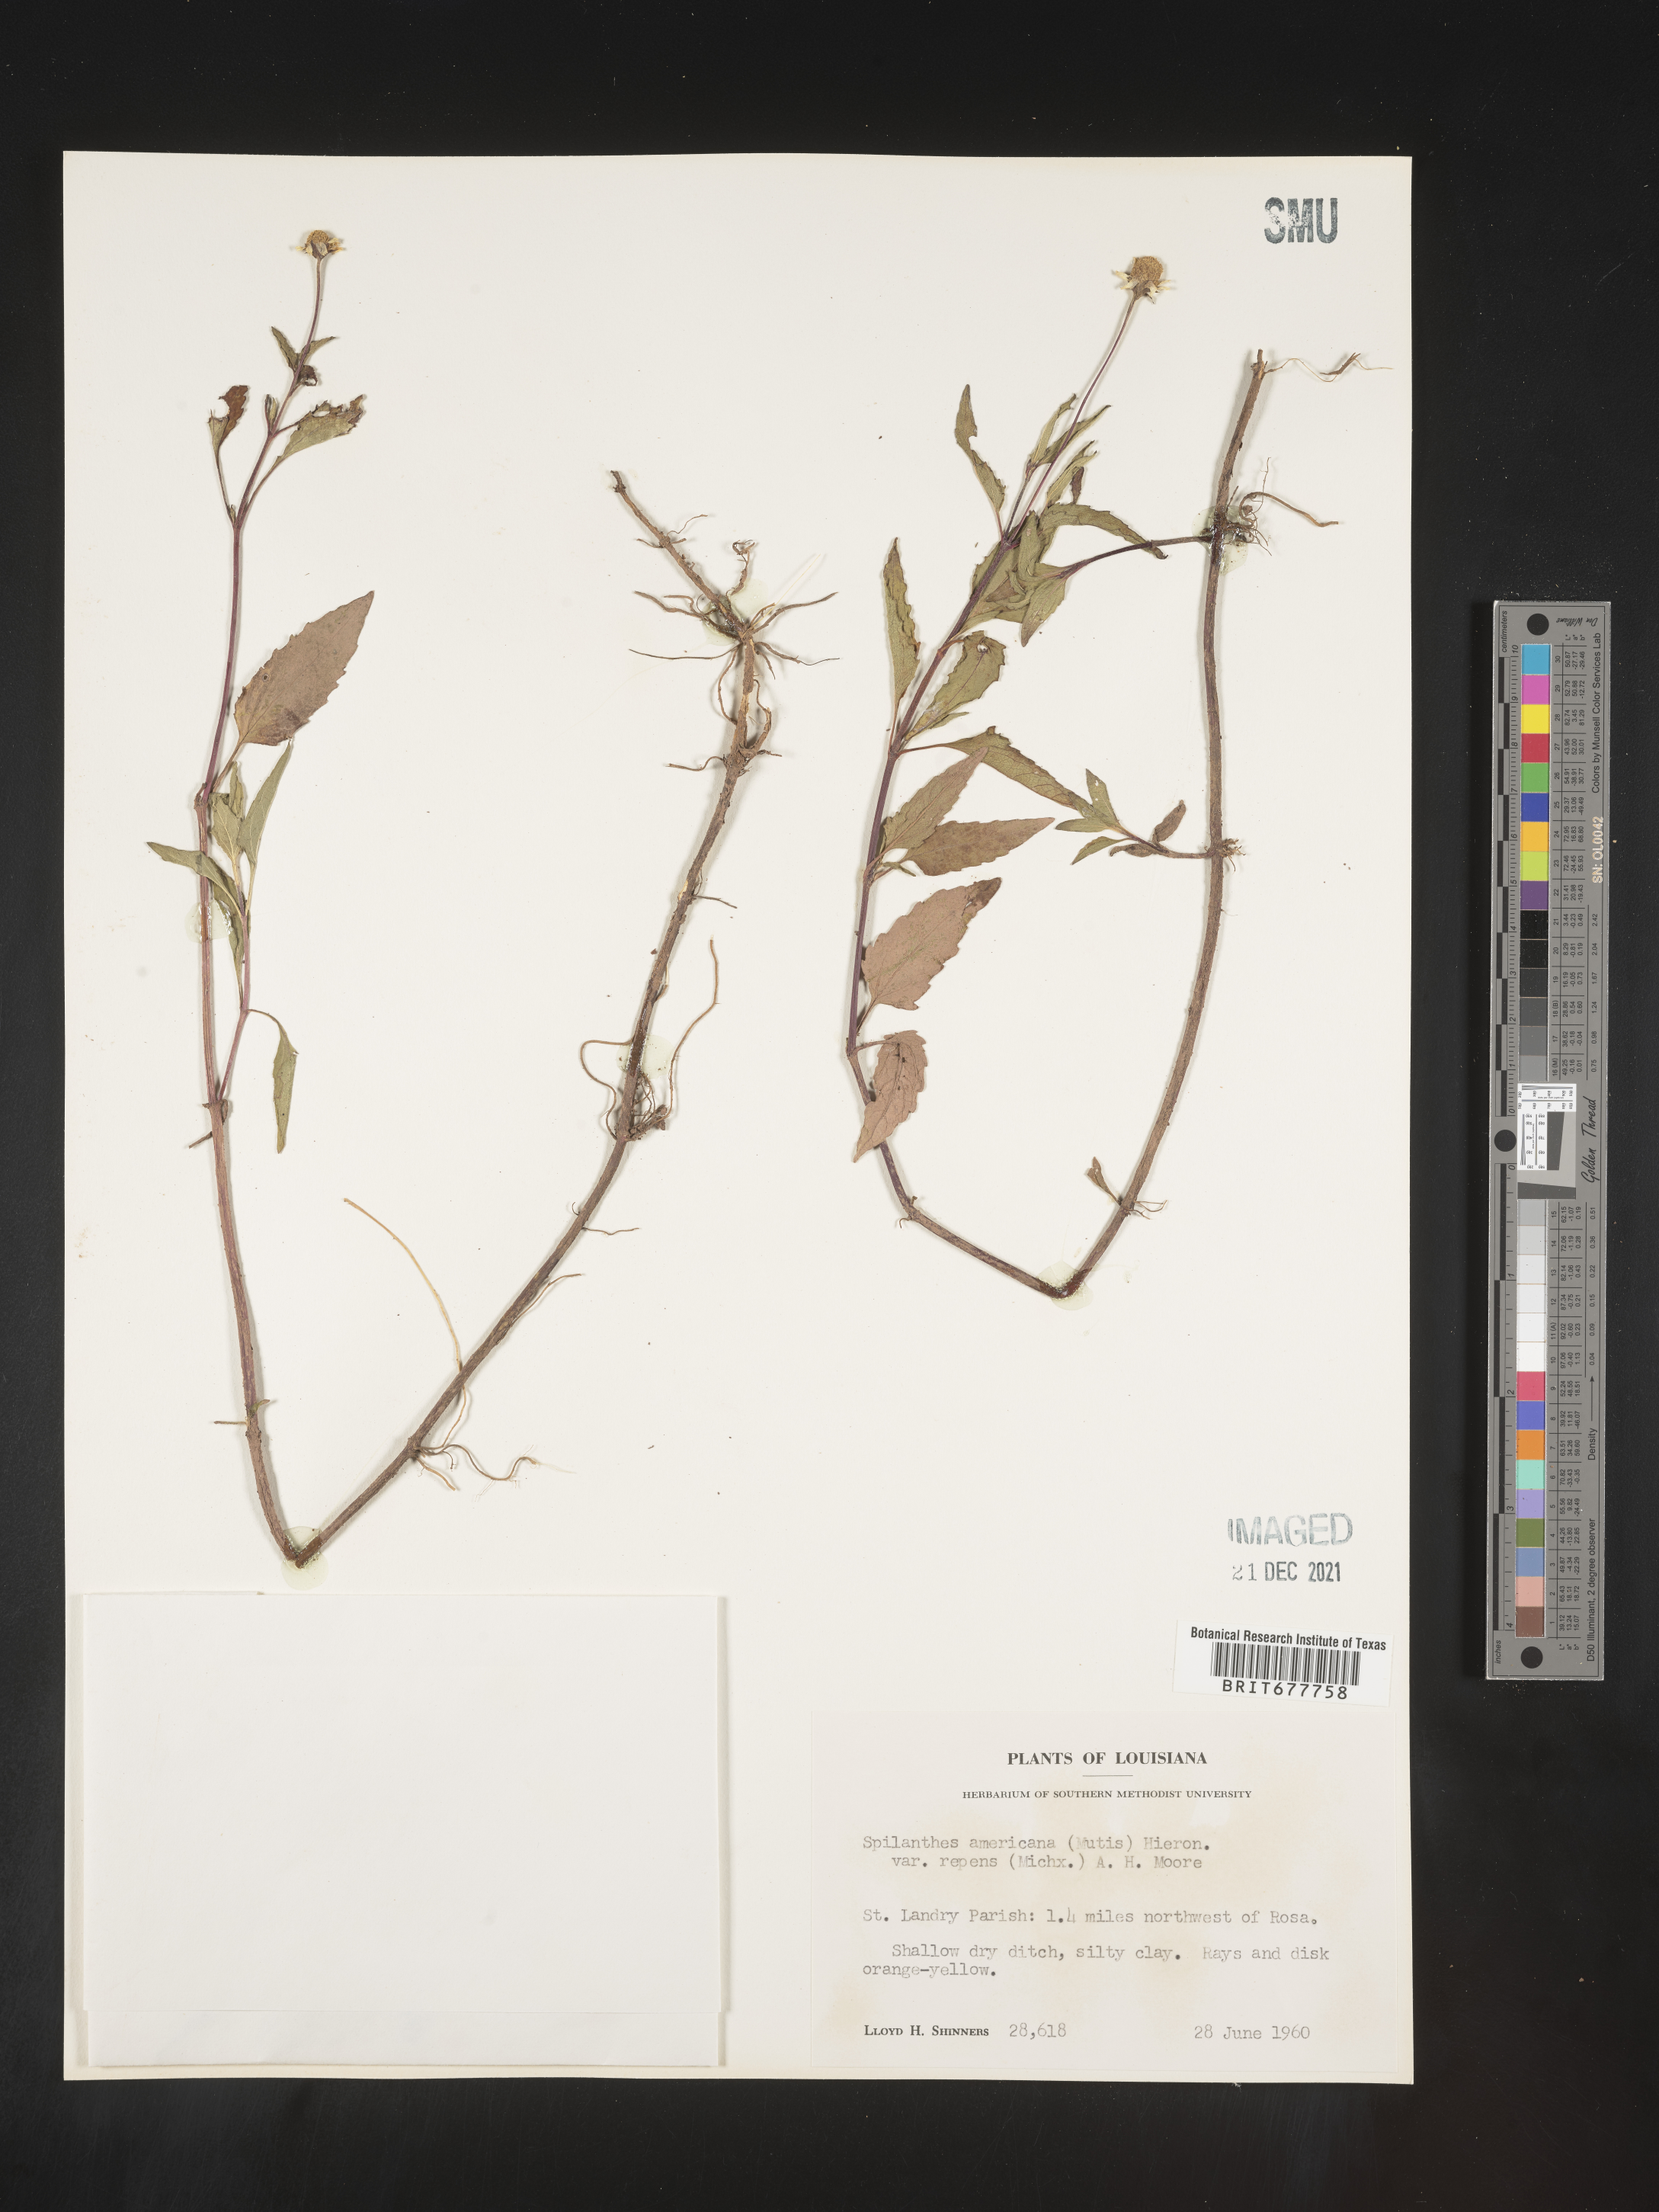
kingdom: Plantae
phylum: Tracheophyta
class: Magnoliopsida
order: Asterales
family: Asteraceae
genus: Spilanthes
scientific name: Spilanthes
